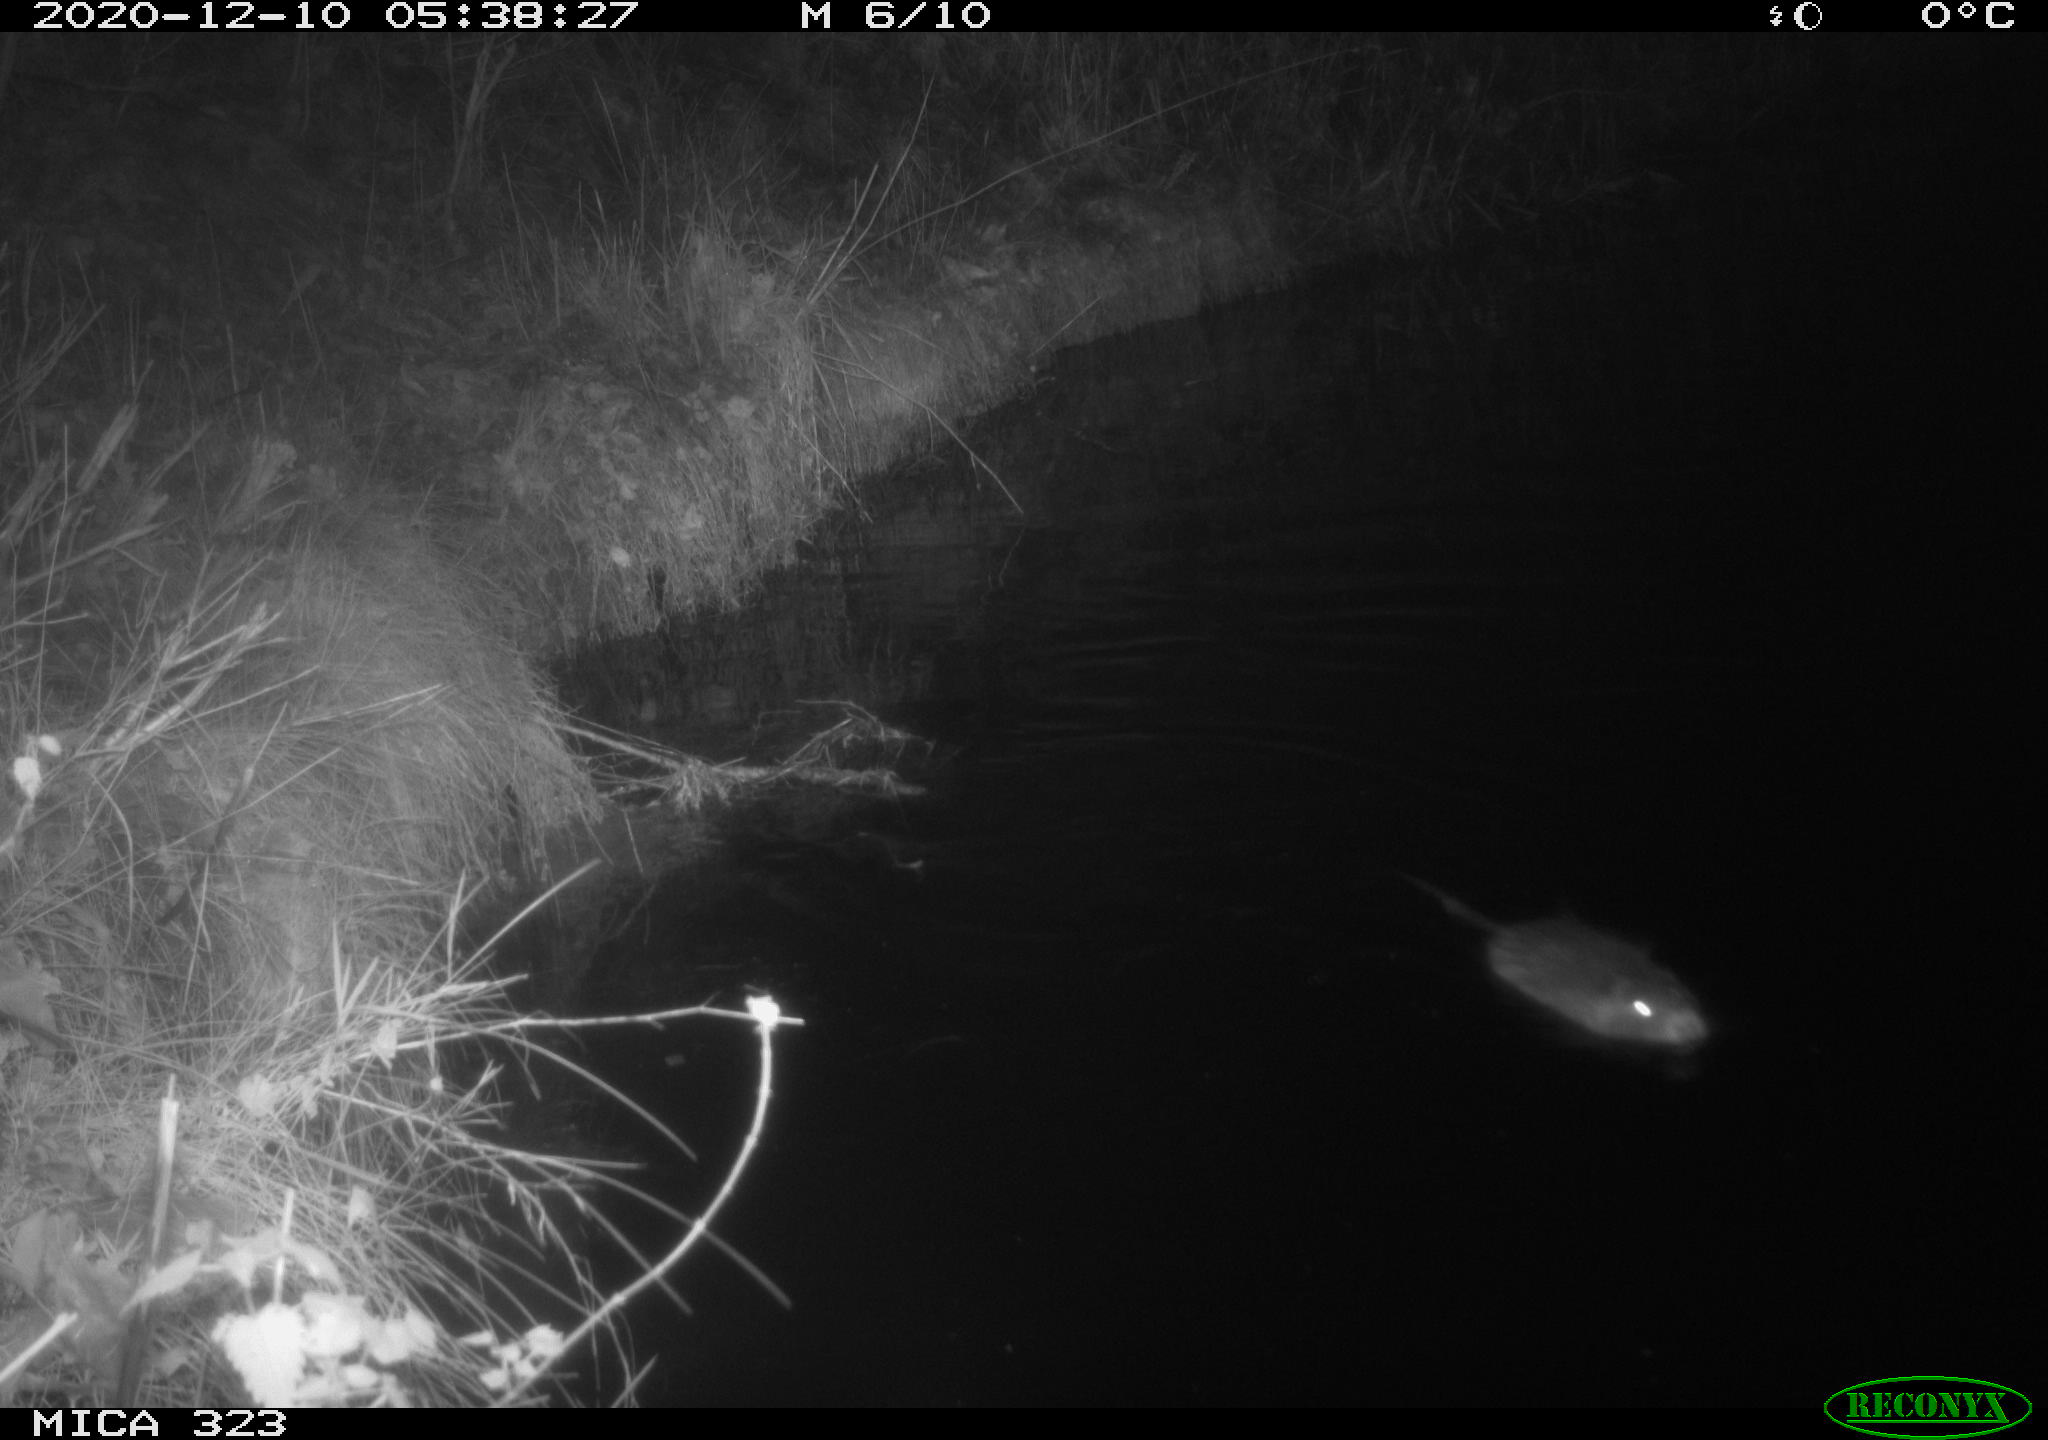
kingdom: Animalia
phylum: Chordata
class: Mammalia
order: Rodentia
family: Myocastoridae
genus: Myocastor
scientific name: Myocastor coypus
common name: Coypu
